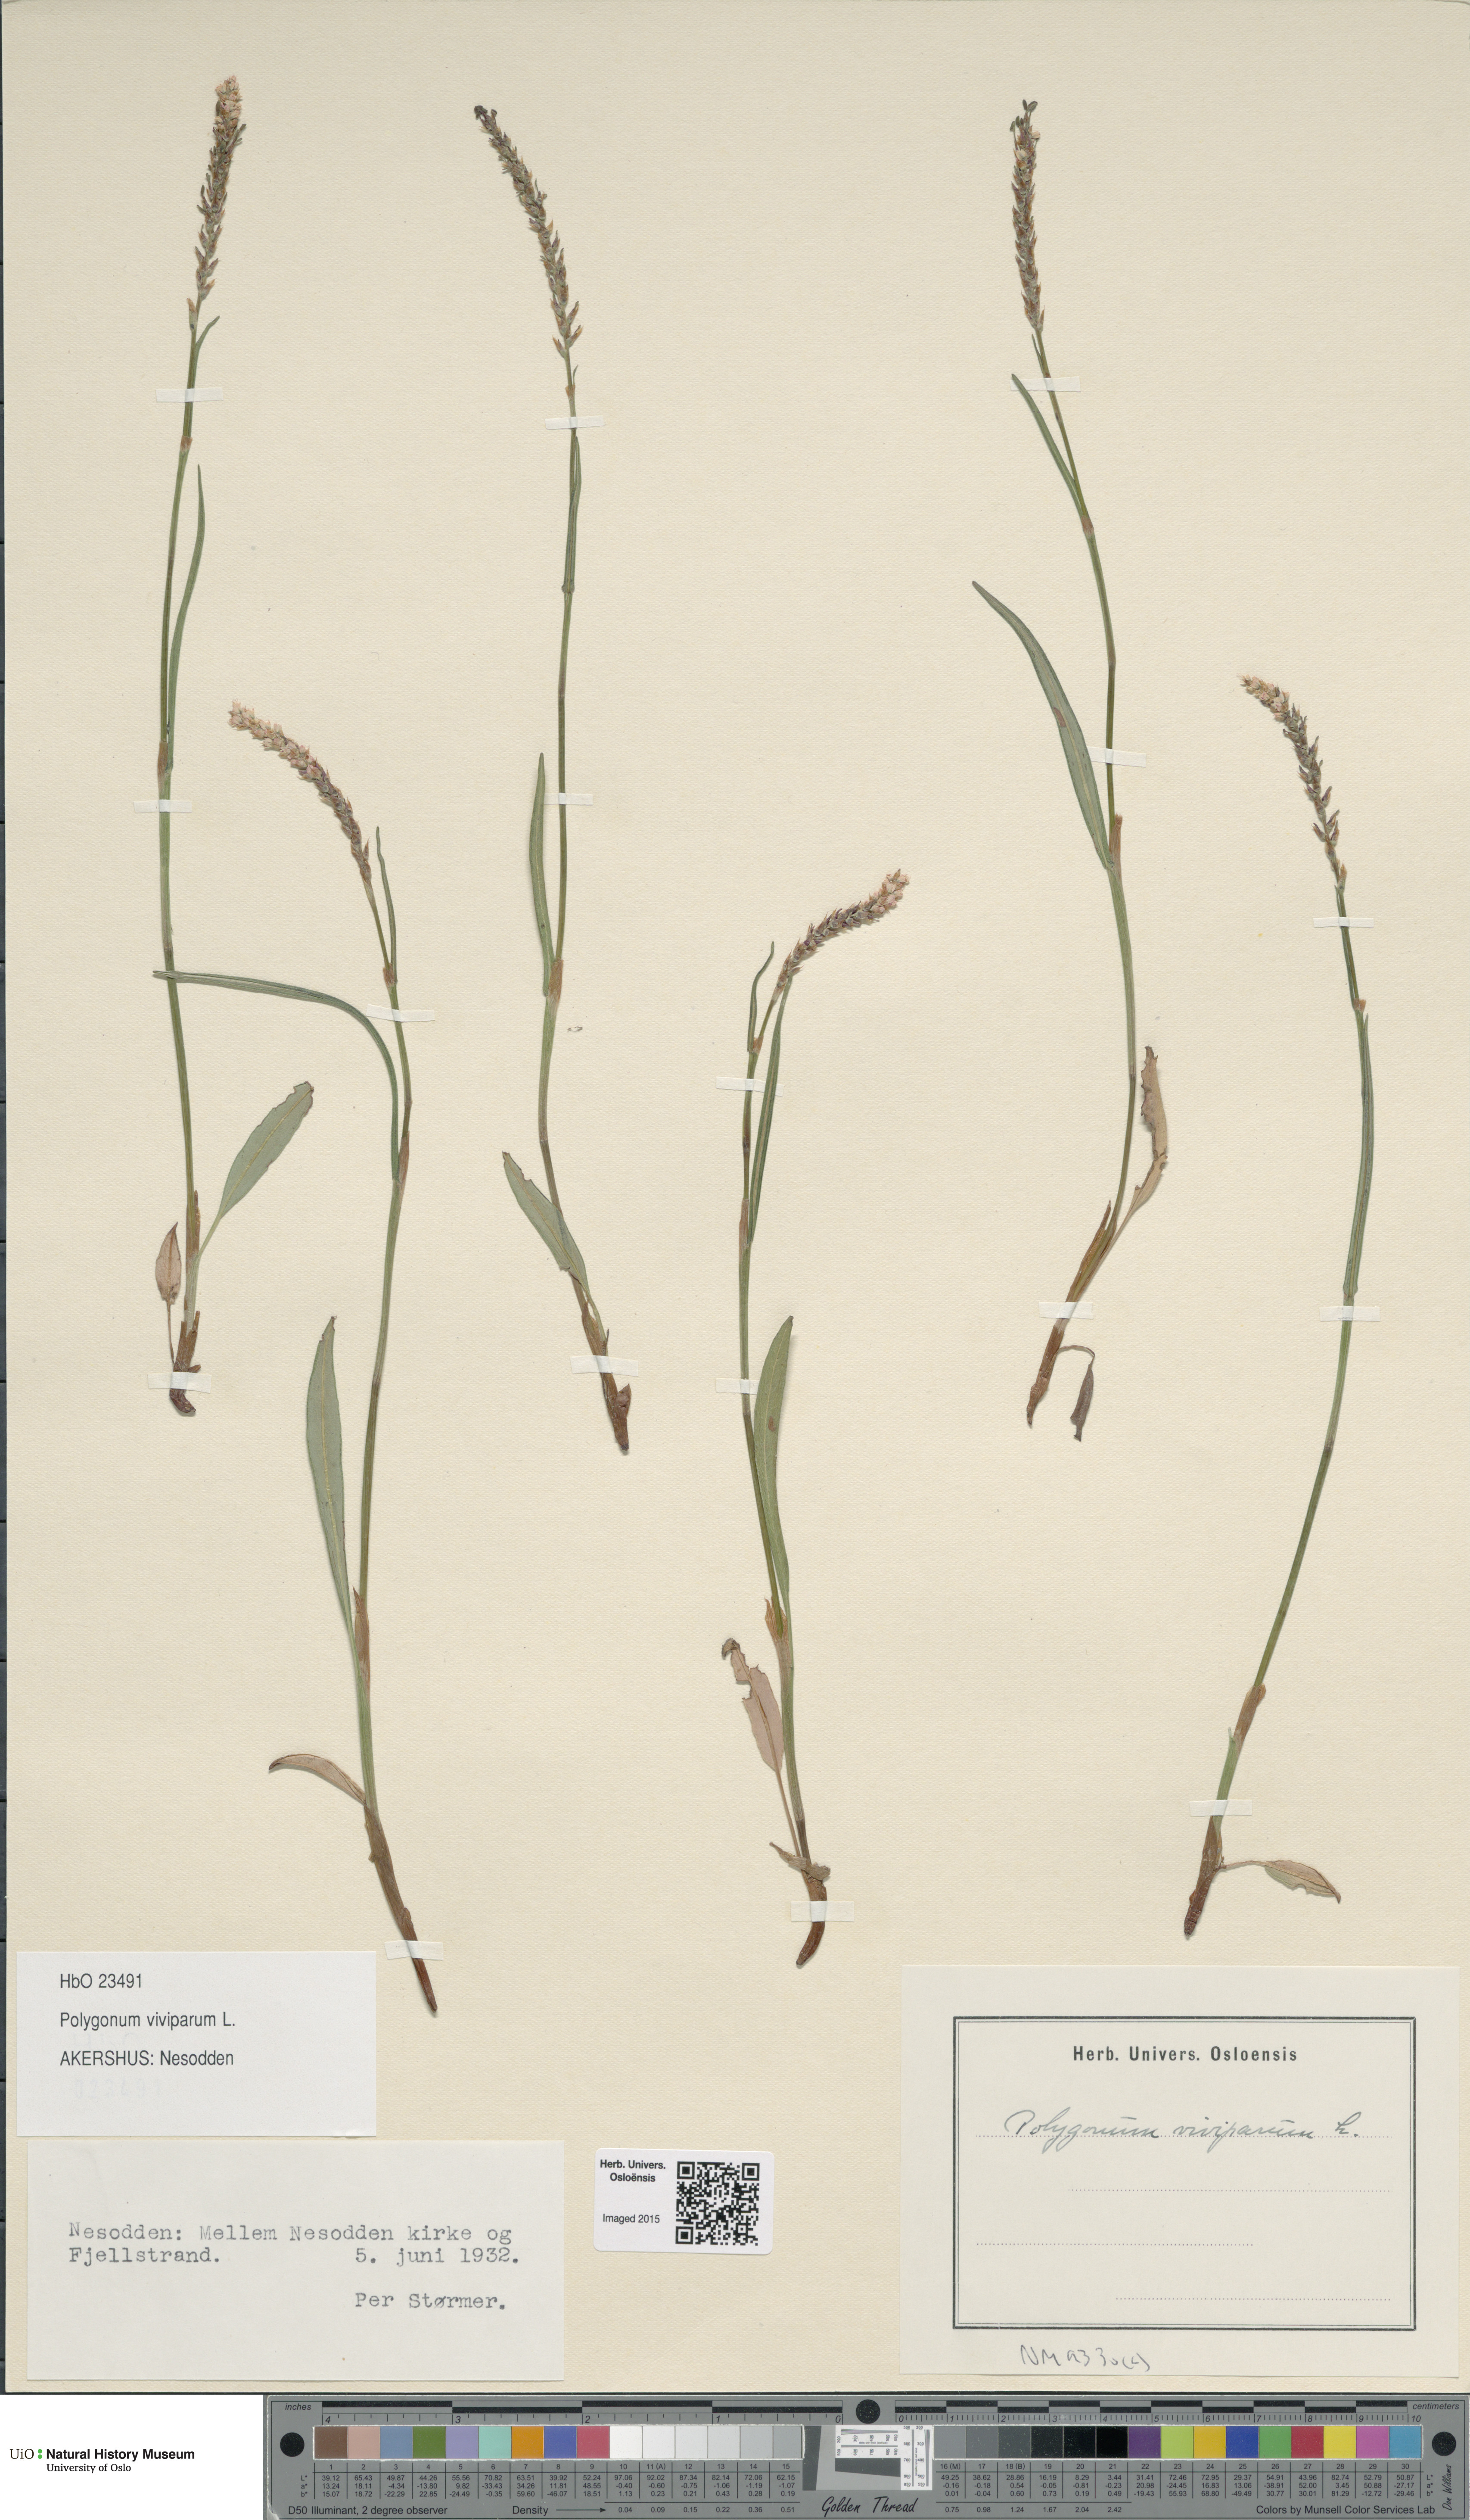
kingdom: Plantae
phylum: Tracheophyta
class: Magnoliopsida
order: Caryophyllales
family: Polygonaceae
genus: Bistorta
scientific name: Bistorta vivipara
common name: Alpine bistort
